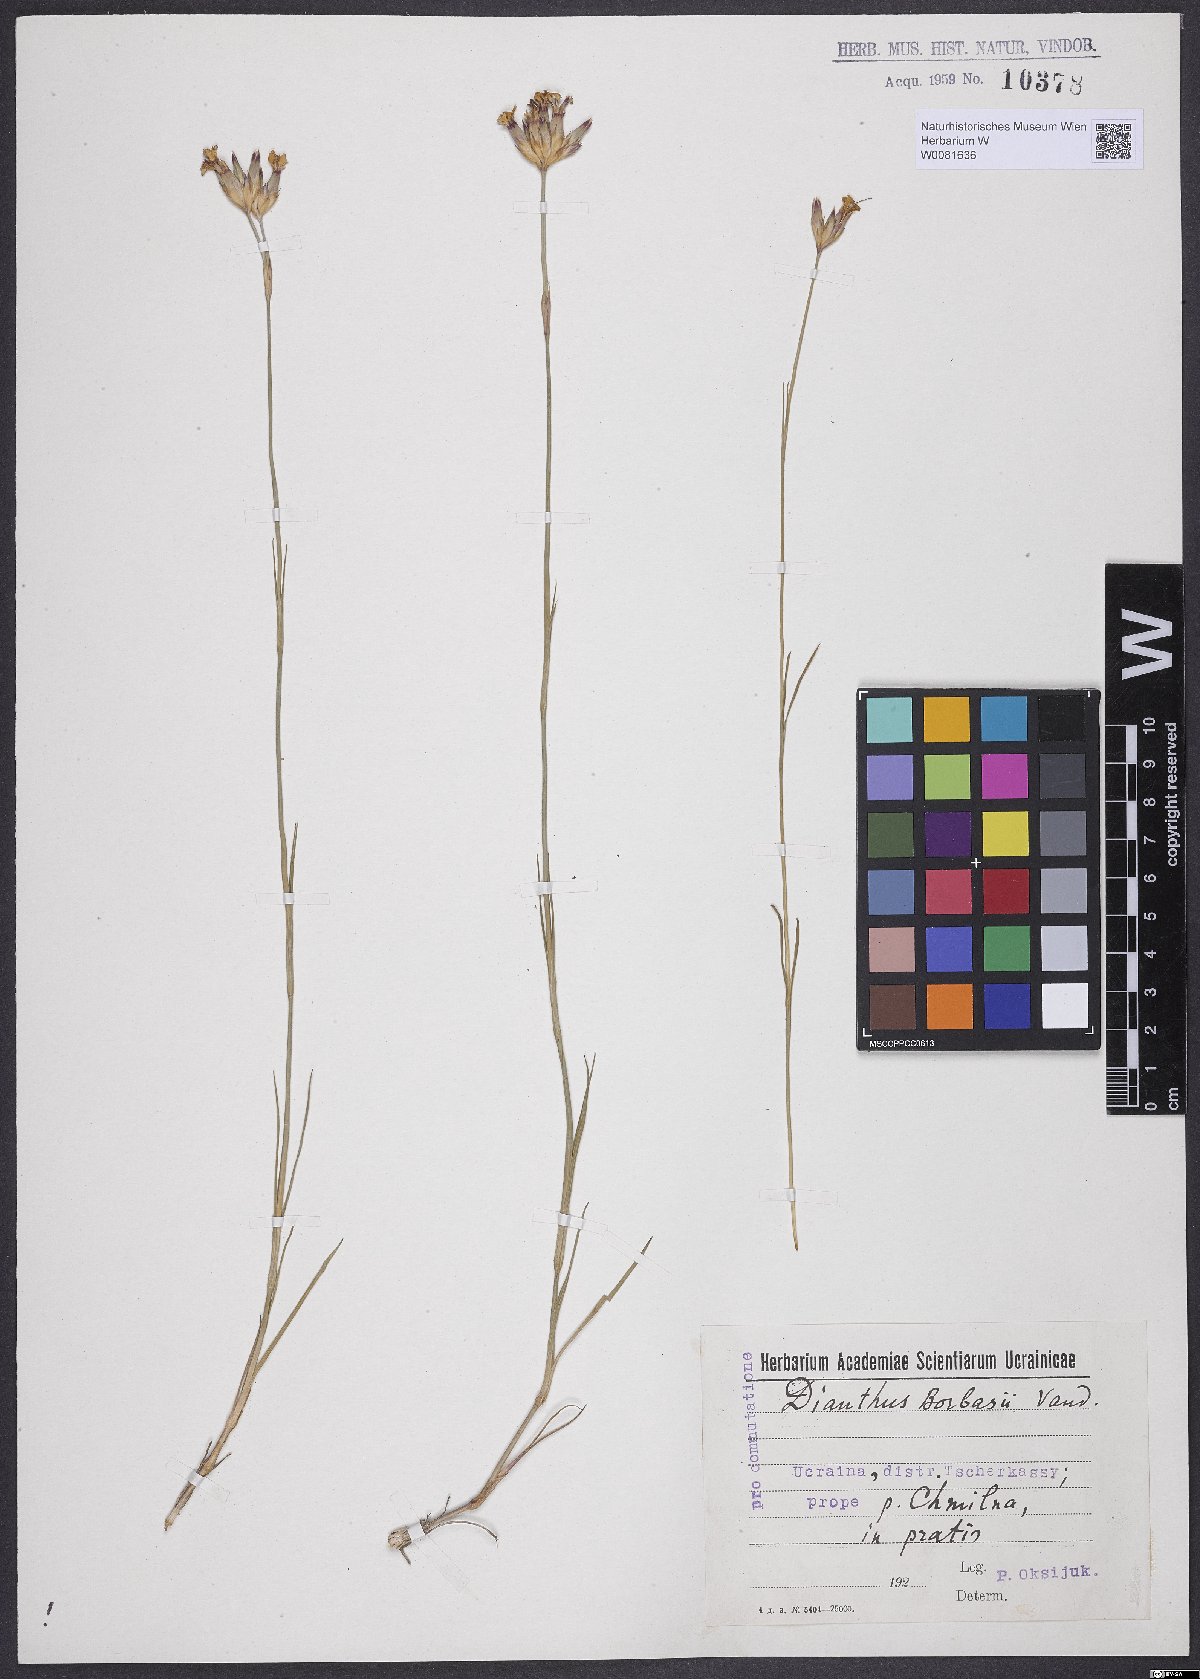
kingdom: Plantae
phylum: Tracheophyta
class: Magnoliopsida
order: Caryophyllales
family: Caryophyllaceae
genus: Dianthus
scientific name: Dianthus borbasii
